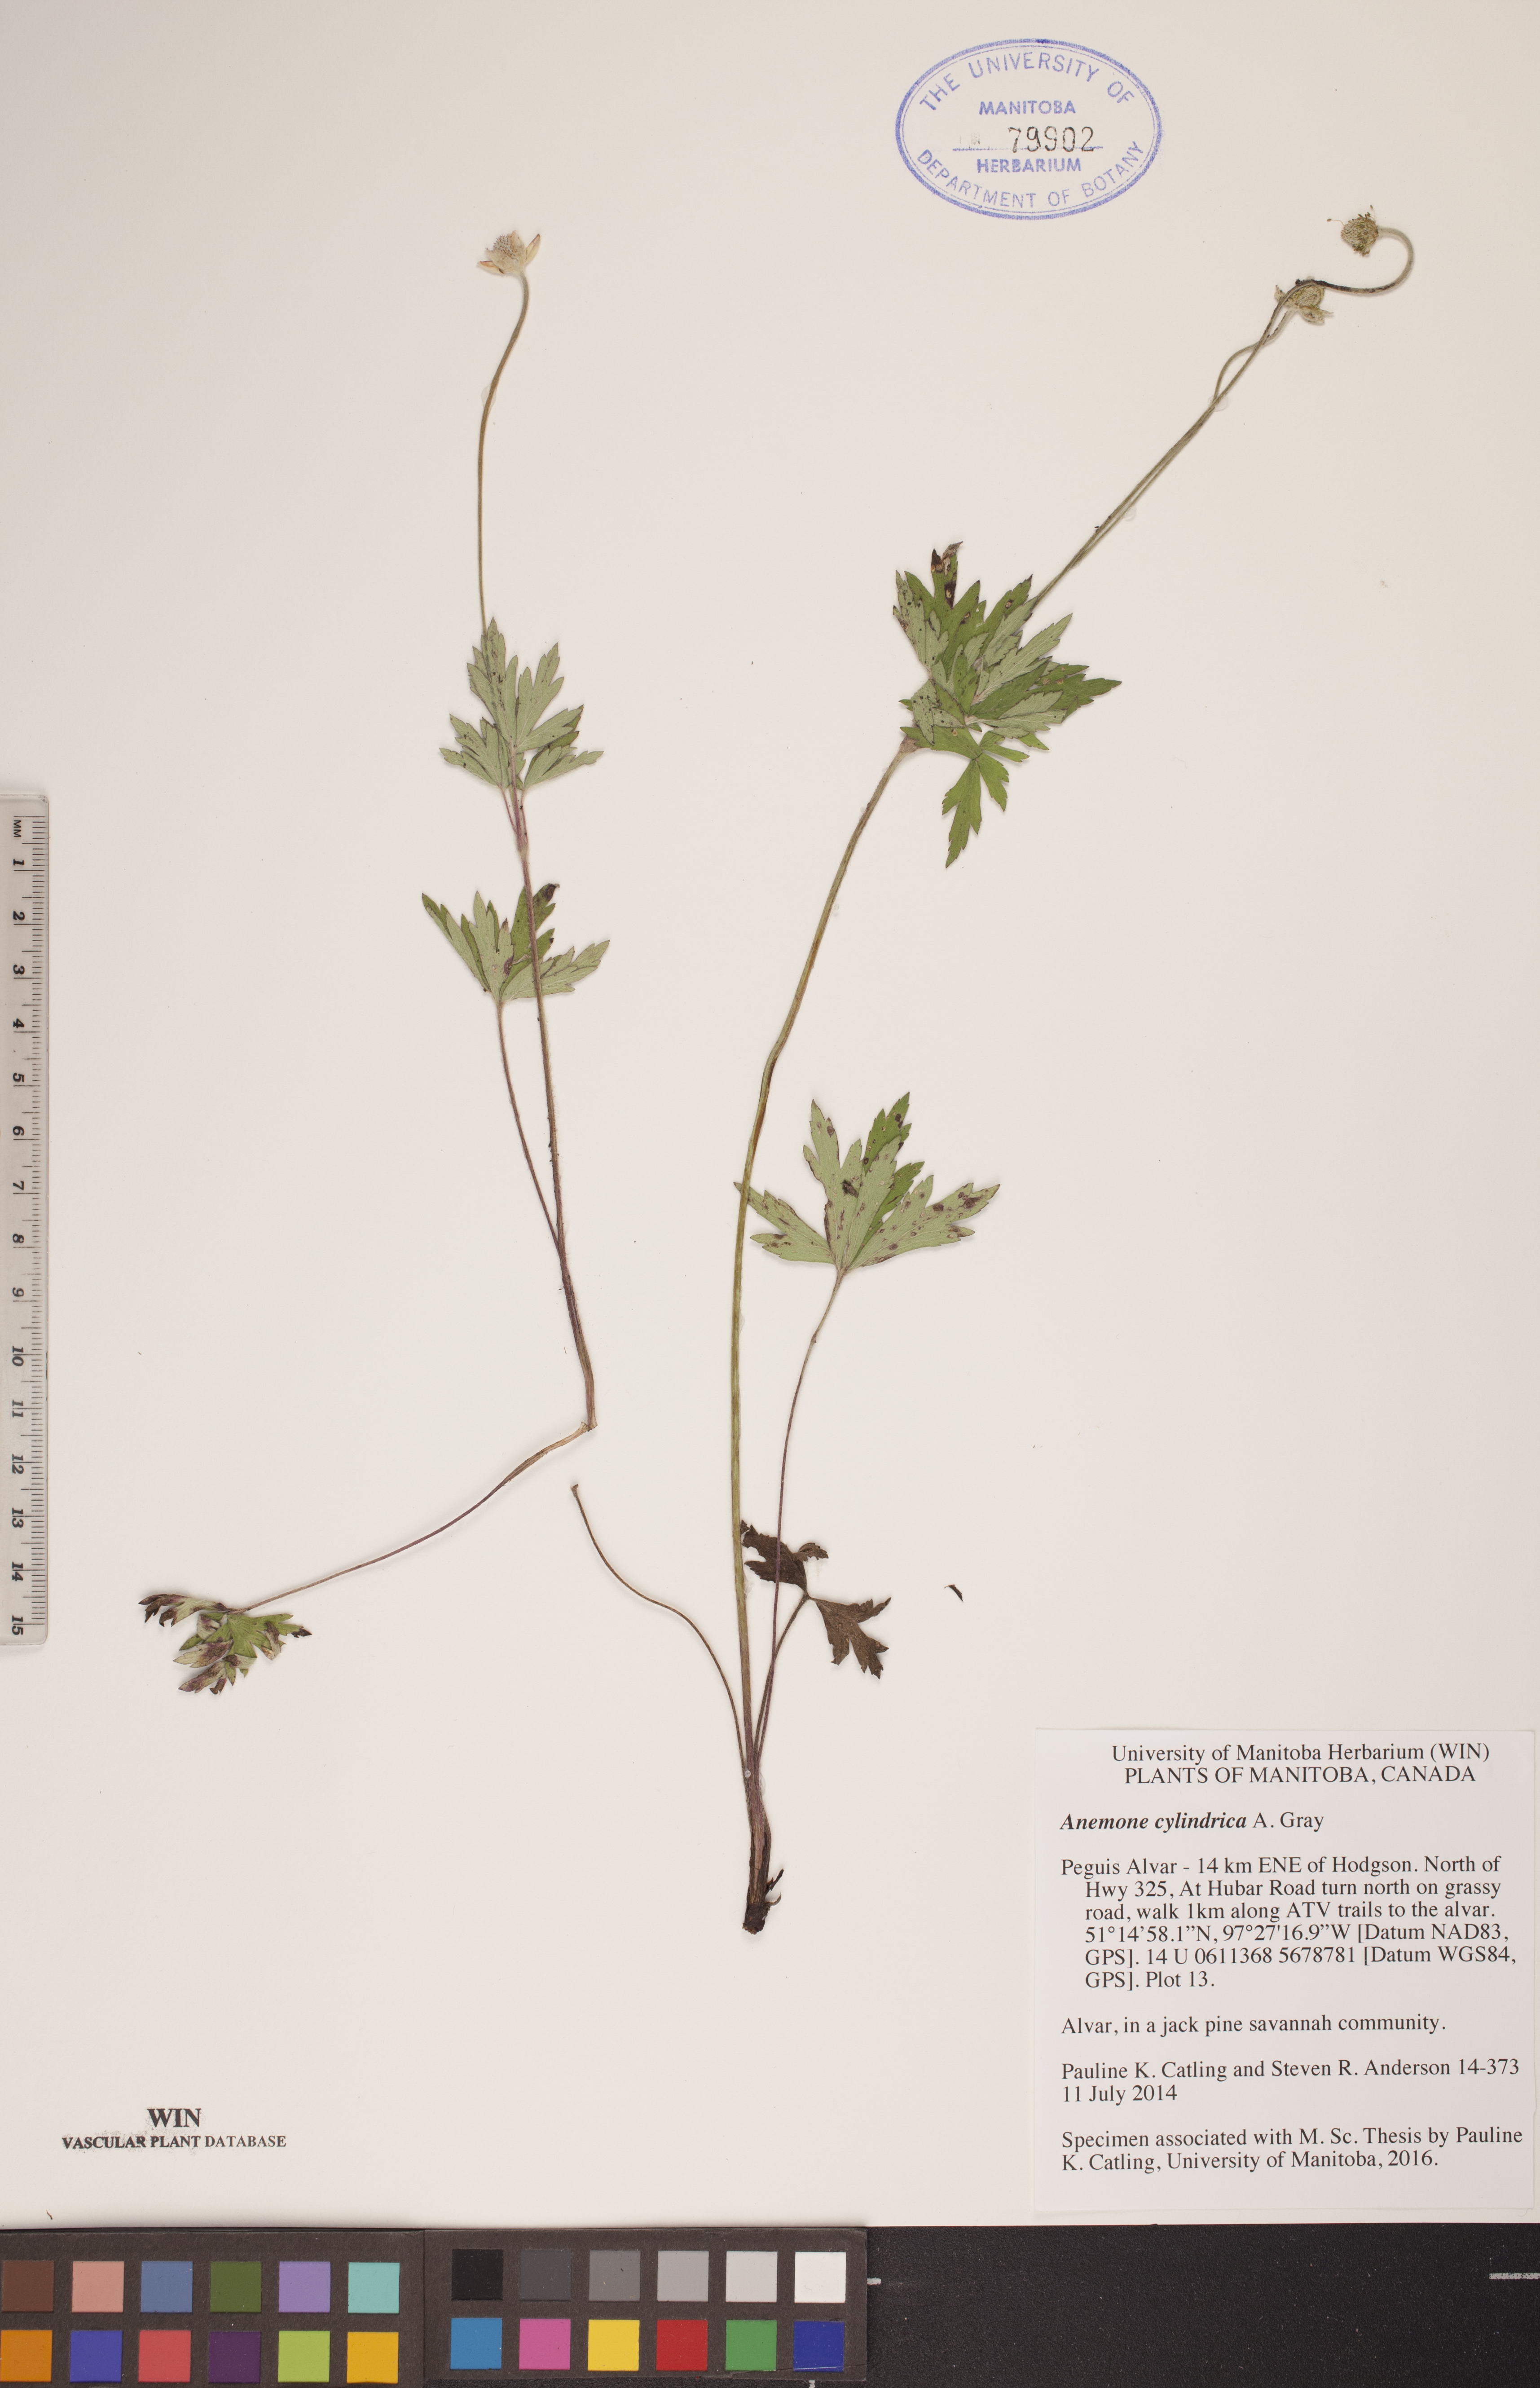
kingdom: Plantae
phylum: Tracheophyta
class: Magnoliopsida
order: Ranunculales
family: Ranunculaceae
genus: Anemone
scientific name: Anemone cylindrica
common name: Candle anemone
